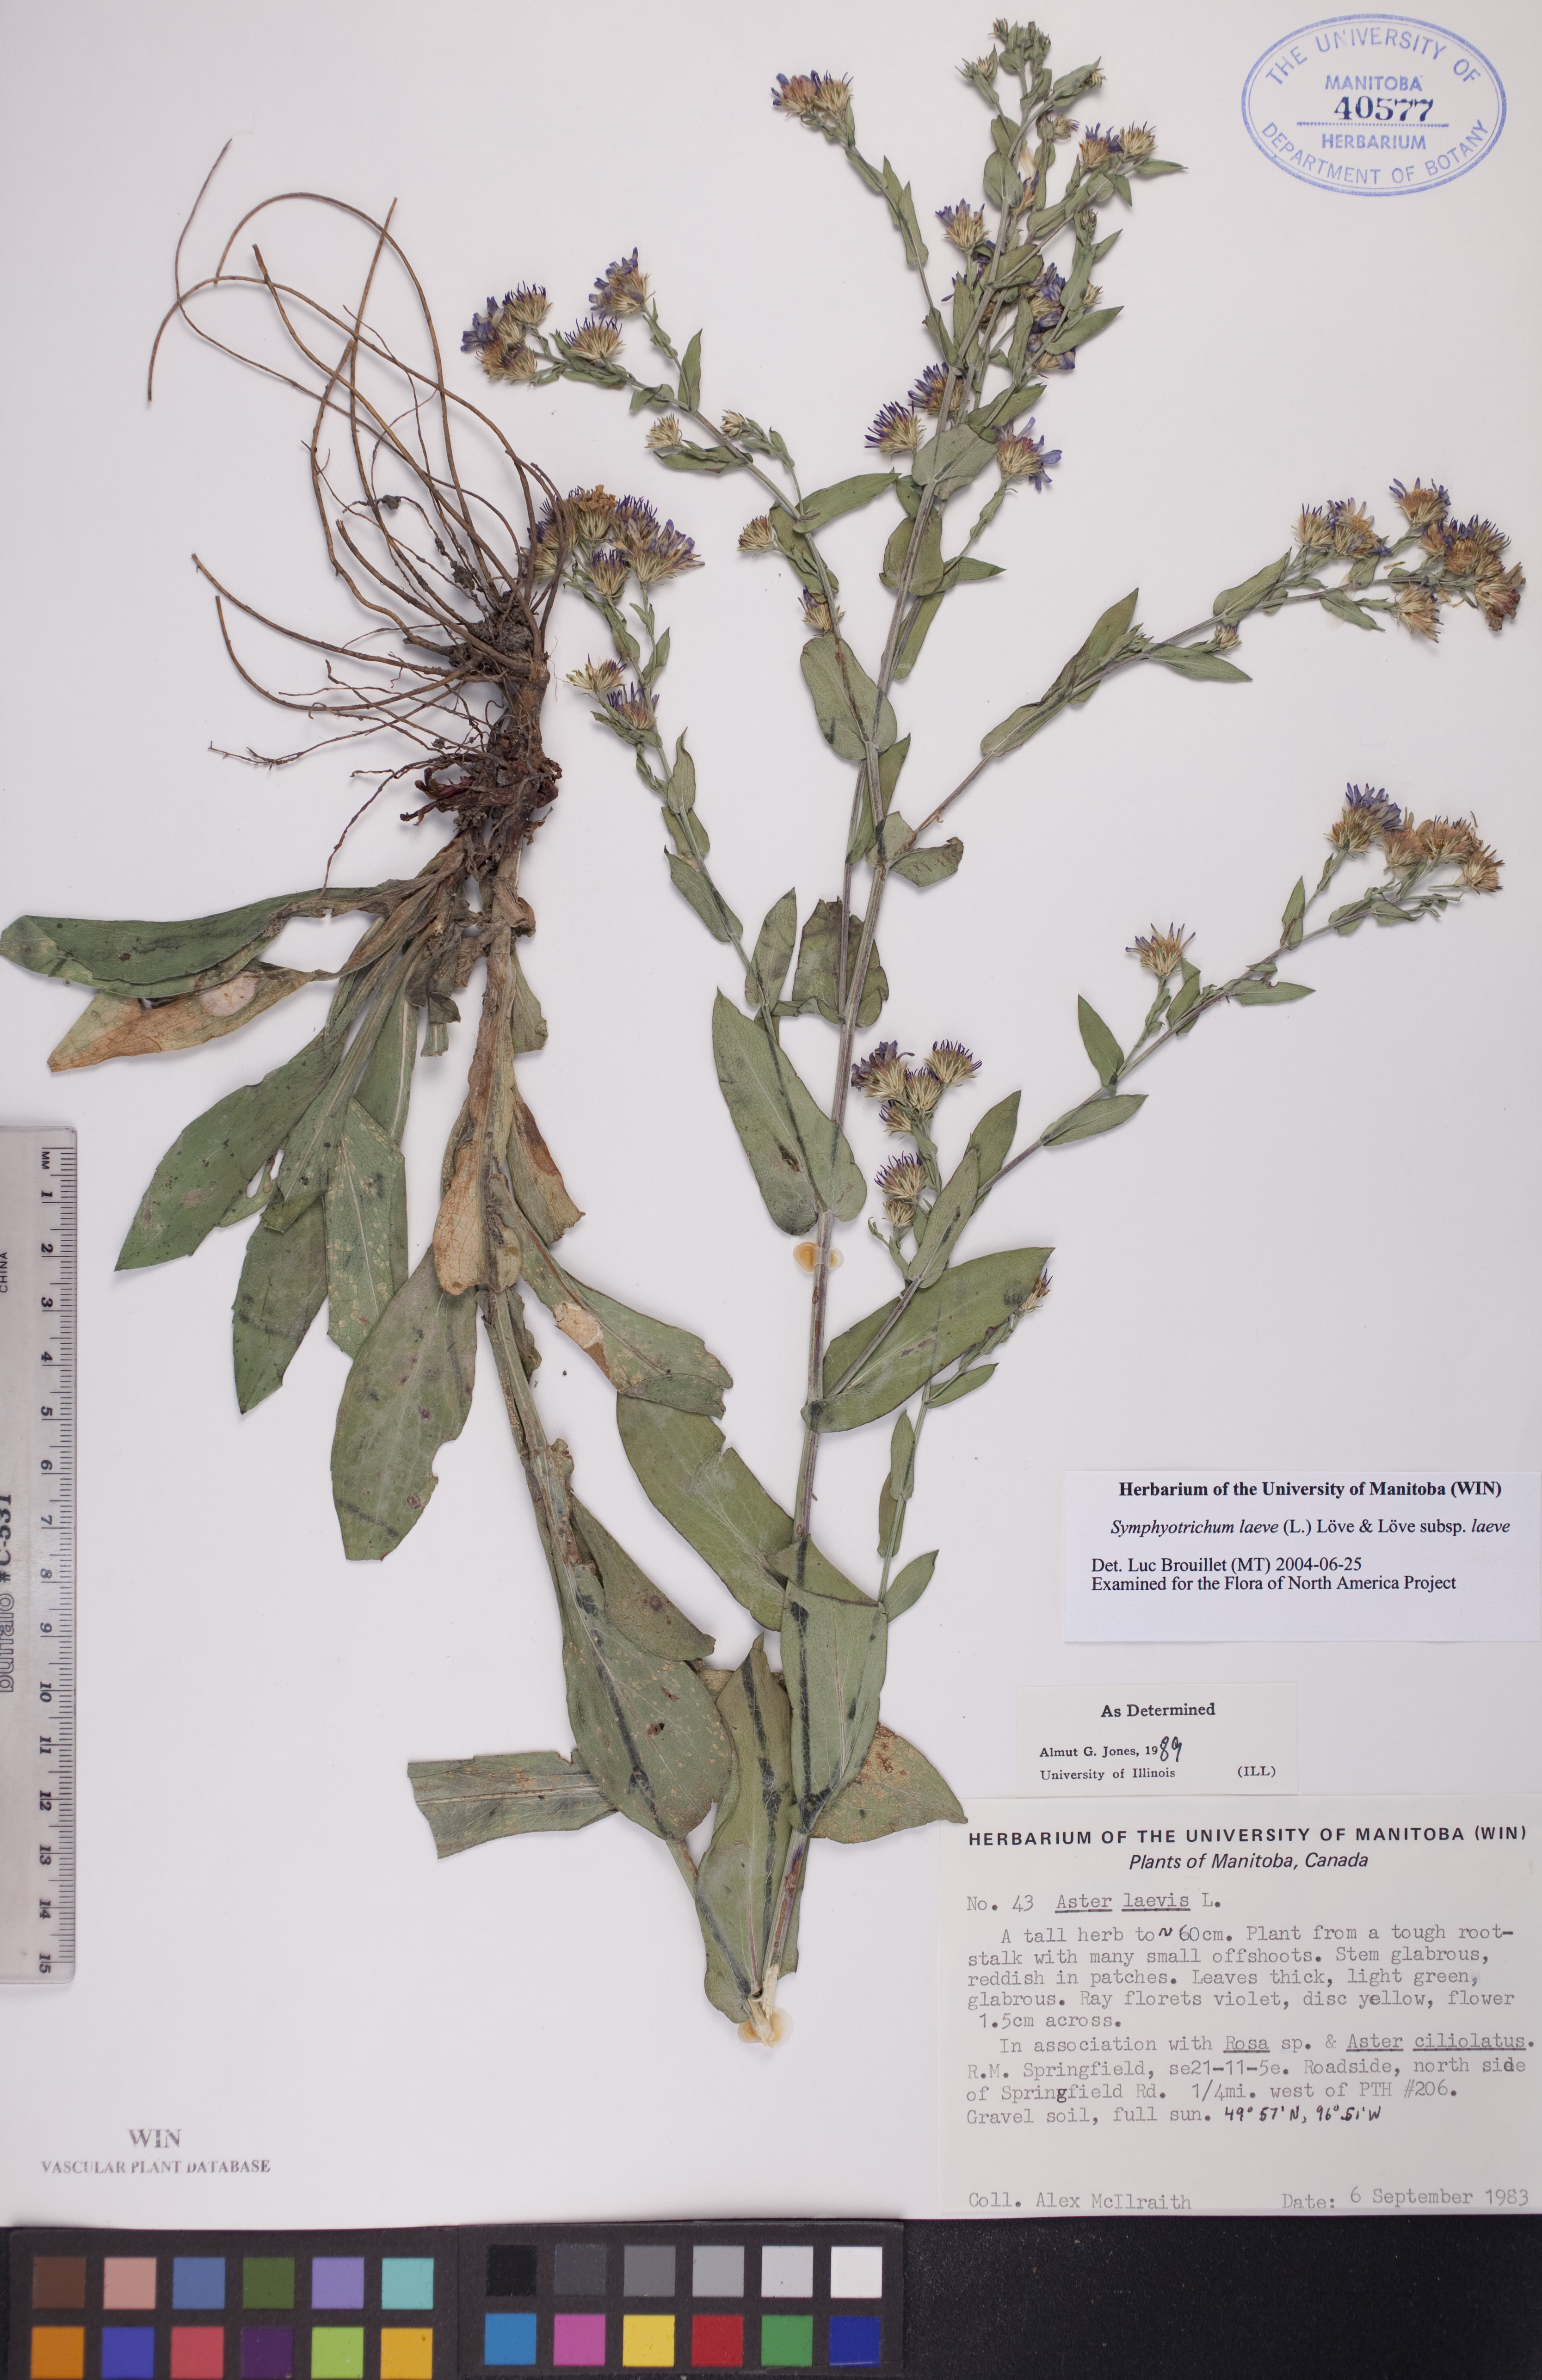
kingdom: Plantae
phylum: Tracheophyta
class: Magnoliopsida
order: Asterales
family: Asteraceae
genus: Symphyotrichum
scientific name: Symphyotrichum laeve
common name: Glaucous aster
